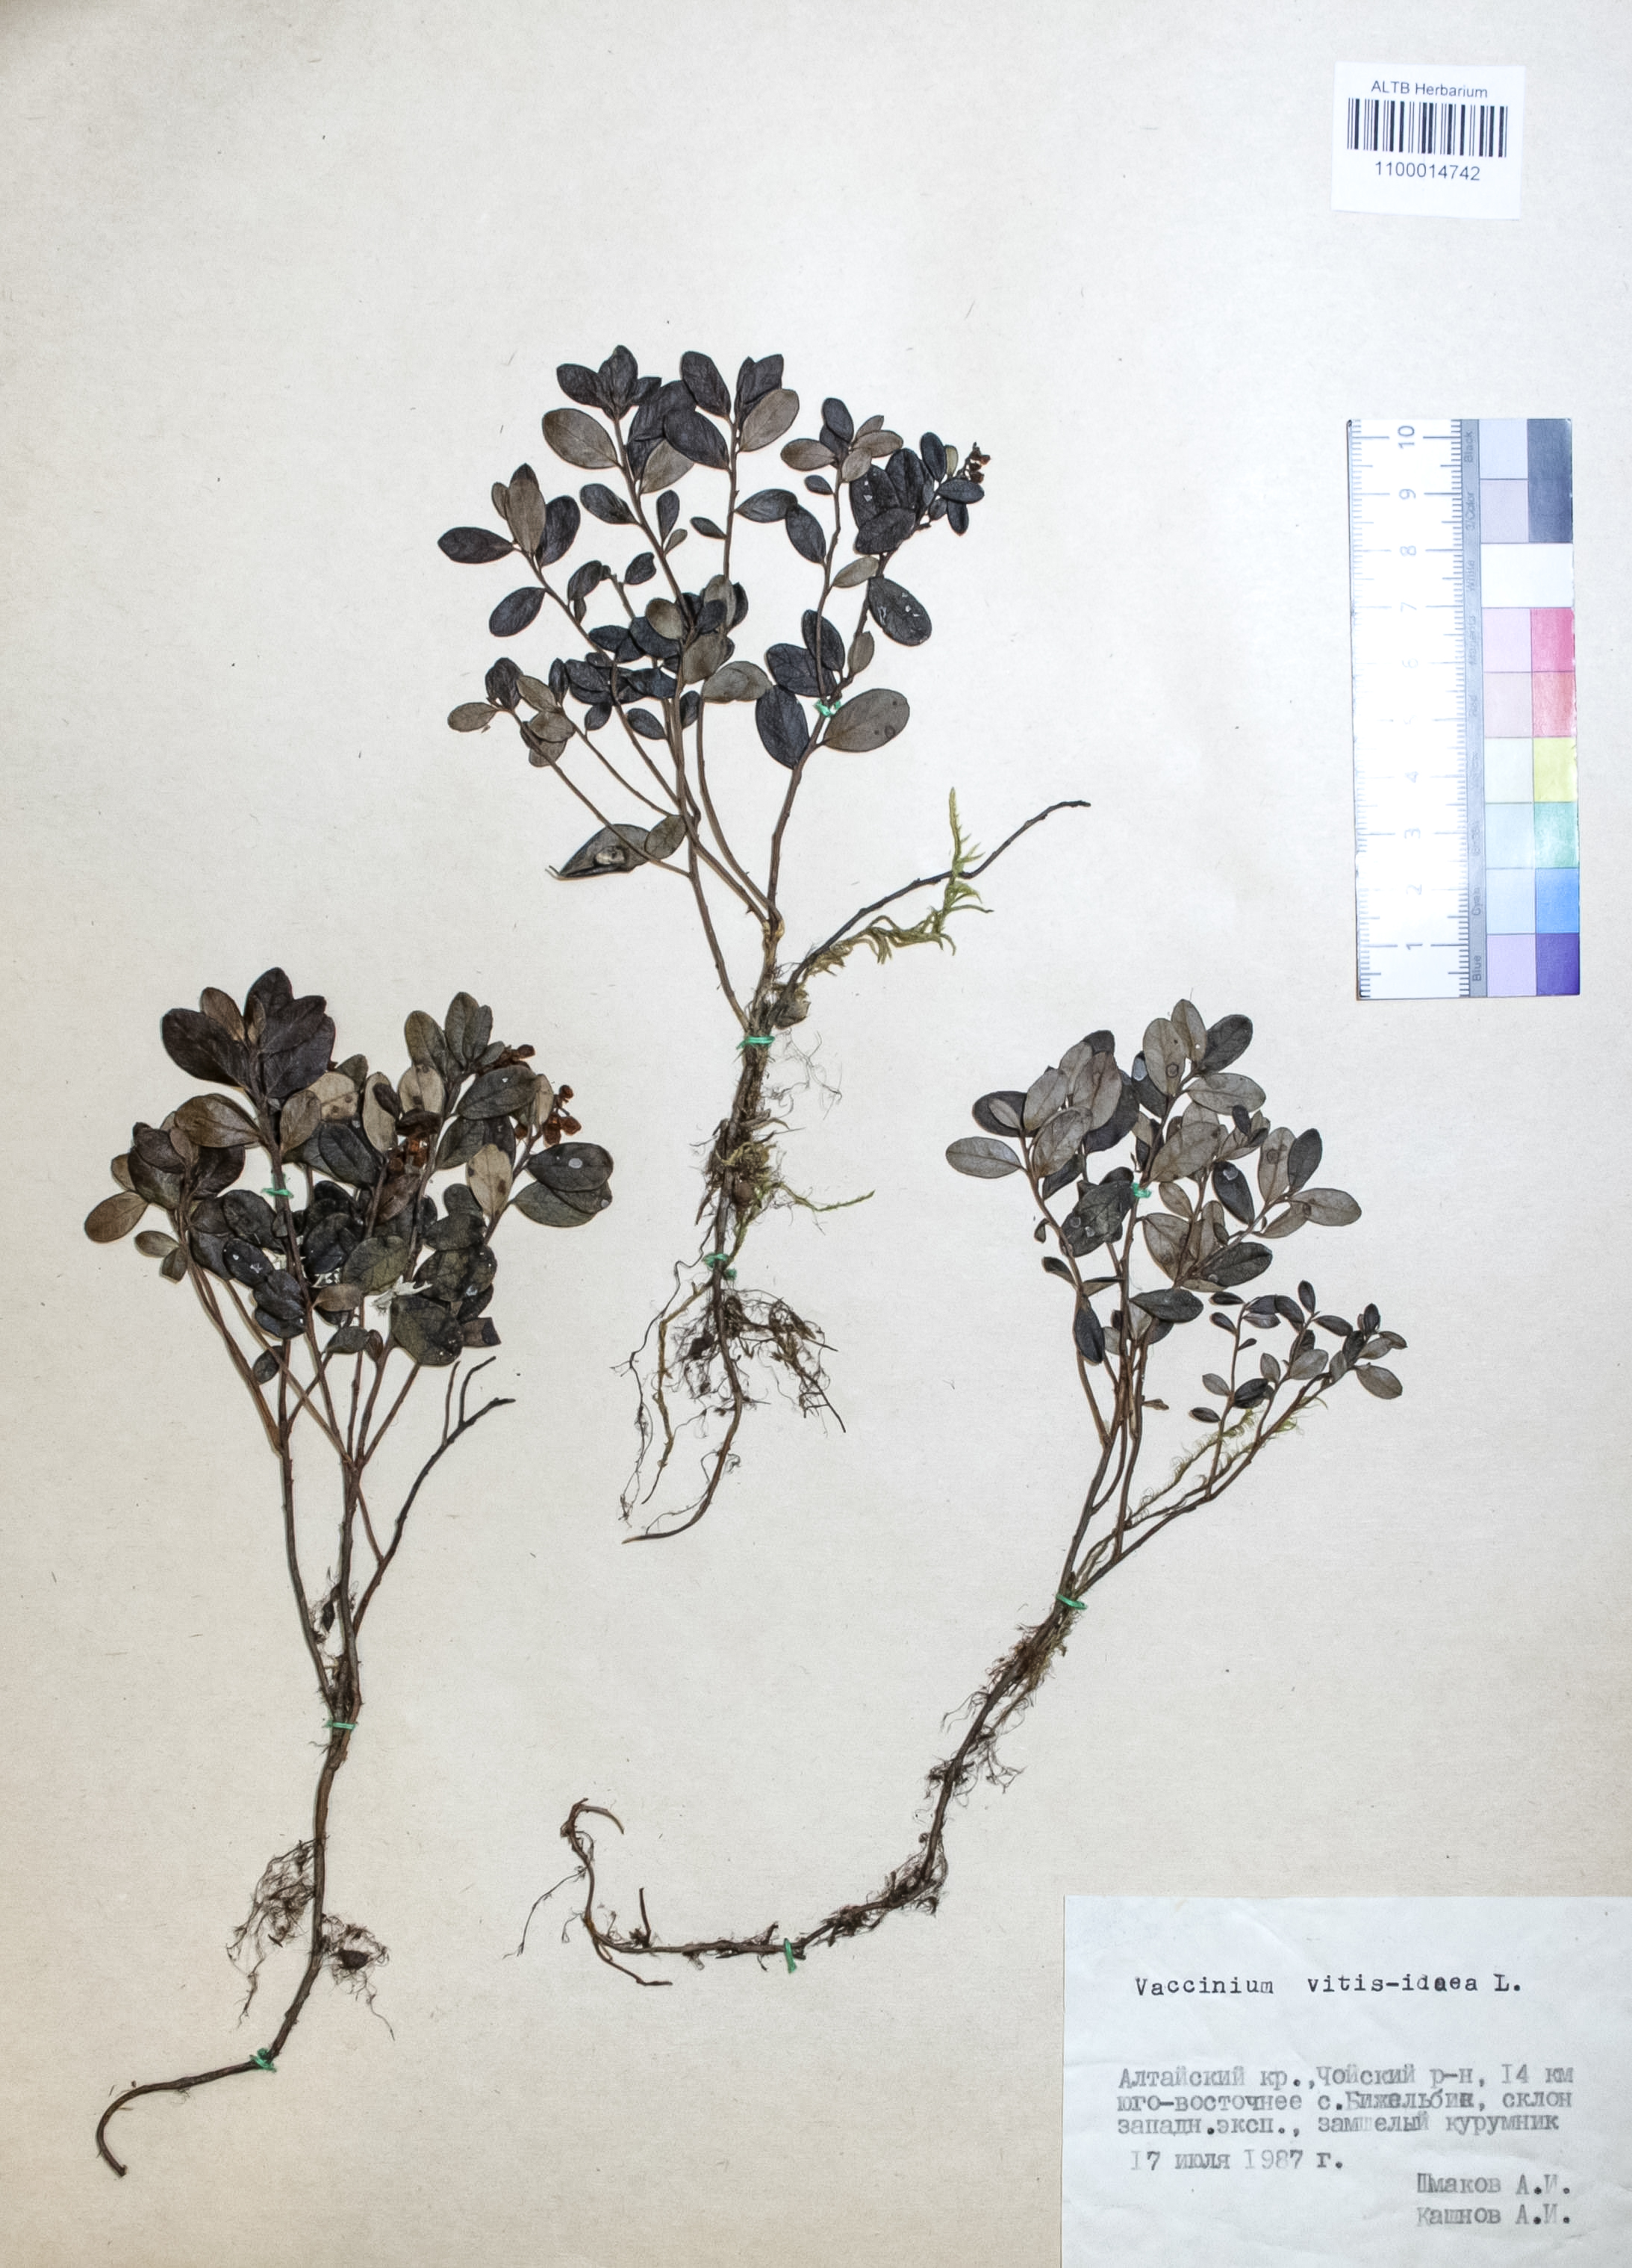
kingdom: Plantae
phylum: Tracheophyta
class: Magnoliopsida
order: Ericales
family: Ericaceae
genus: Vaccinium
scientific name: Vaccinium vitis-idaea
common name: Cowberry
